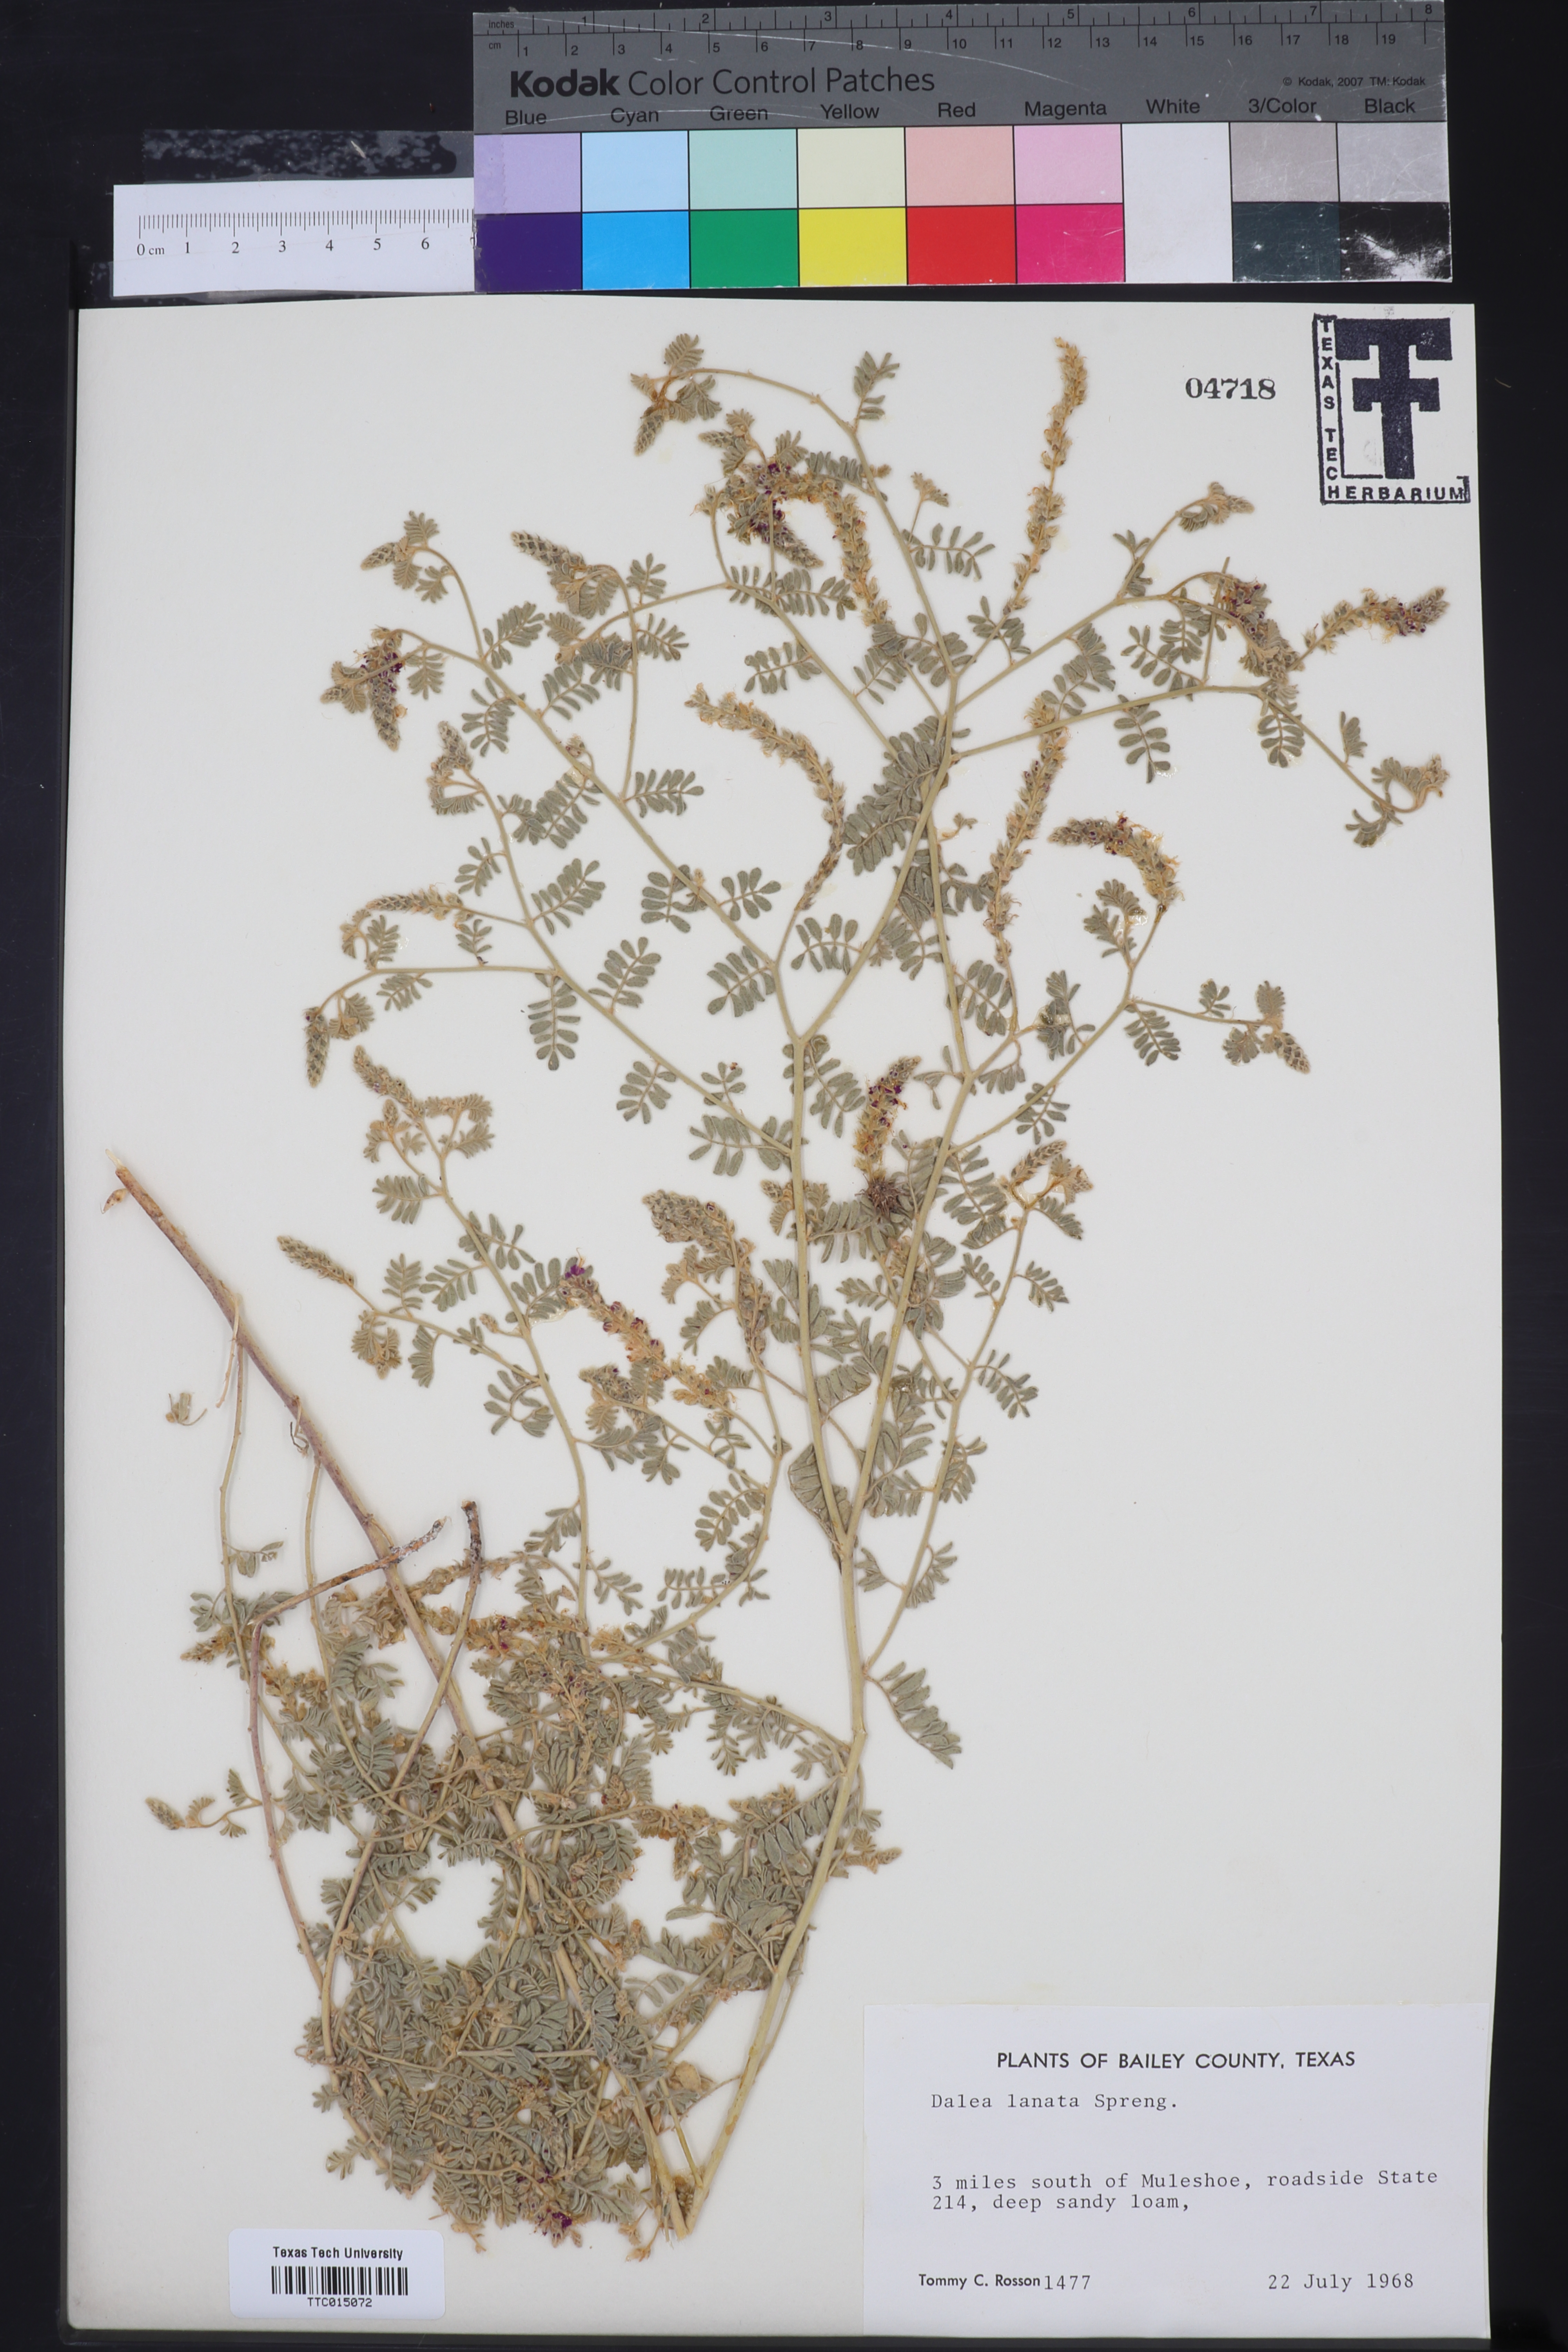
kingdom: Plantae
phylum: Tracheophyta
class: Magnoliopsida
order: Fabales
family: Fabaceae
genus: Dalea
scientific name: Dalea lanata
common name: Woolly dalea
